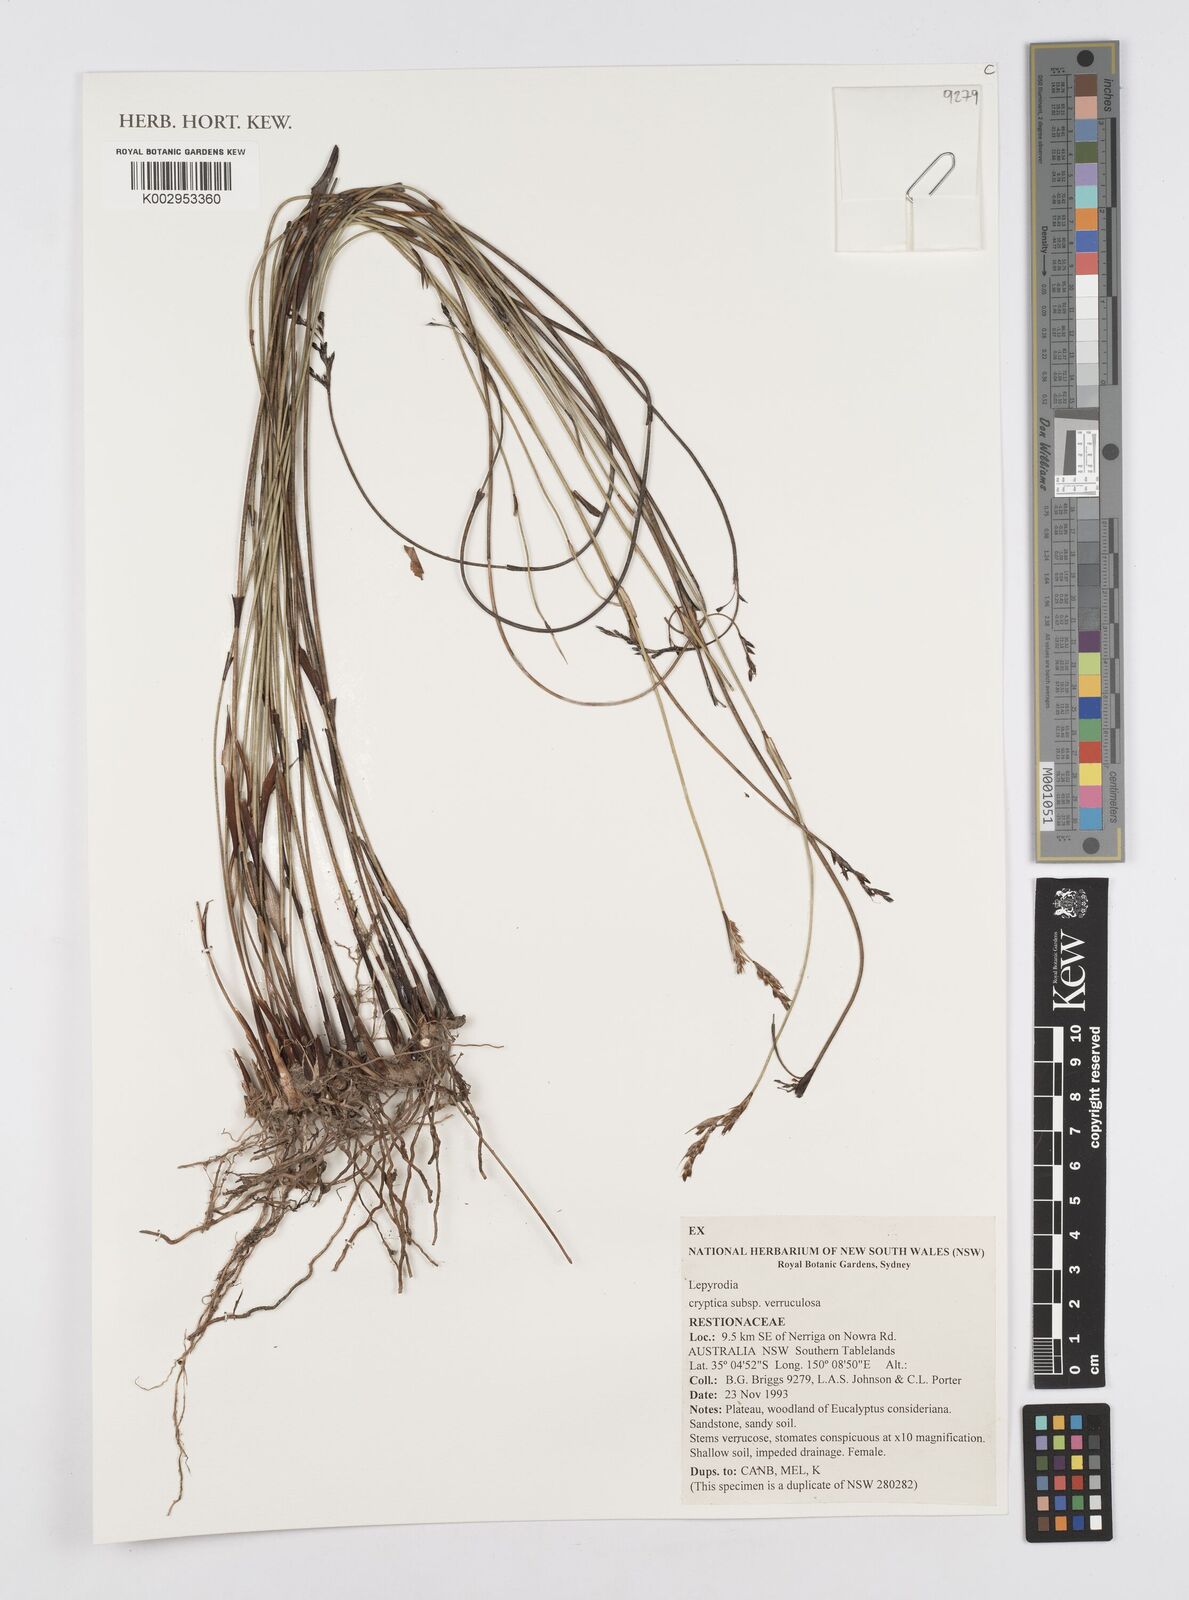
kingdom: Plantae
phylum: Tracheophyta
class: Liliopsida
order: Poales
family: Restionaceae
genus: Lepyrodia
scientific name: Lepyrodia cryptica
